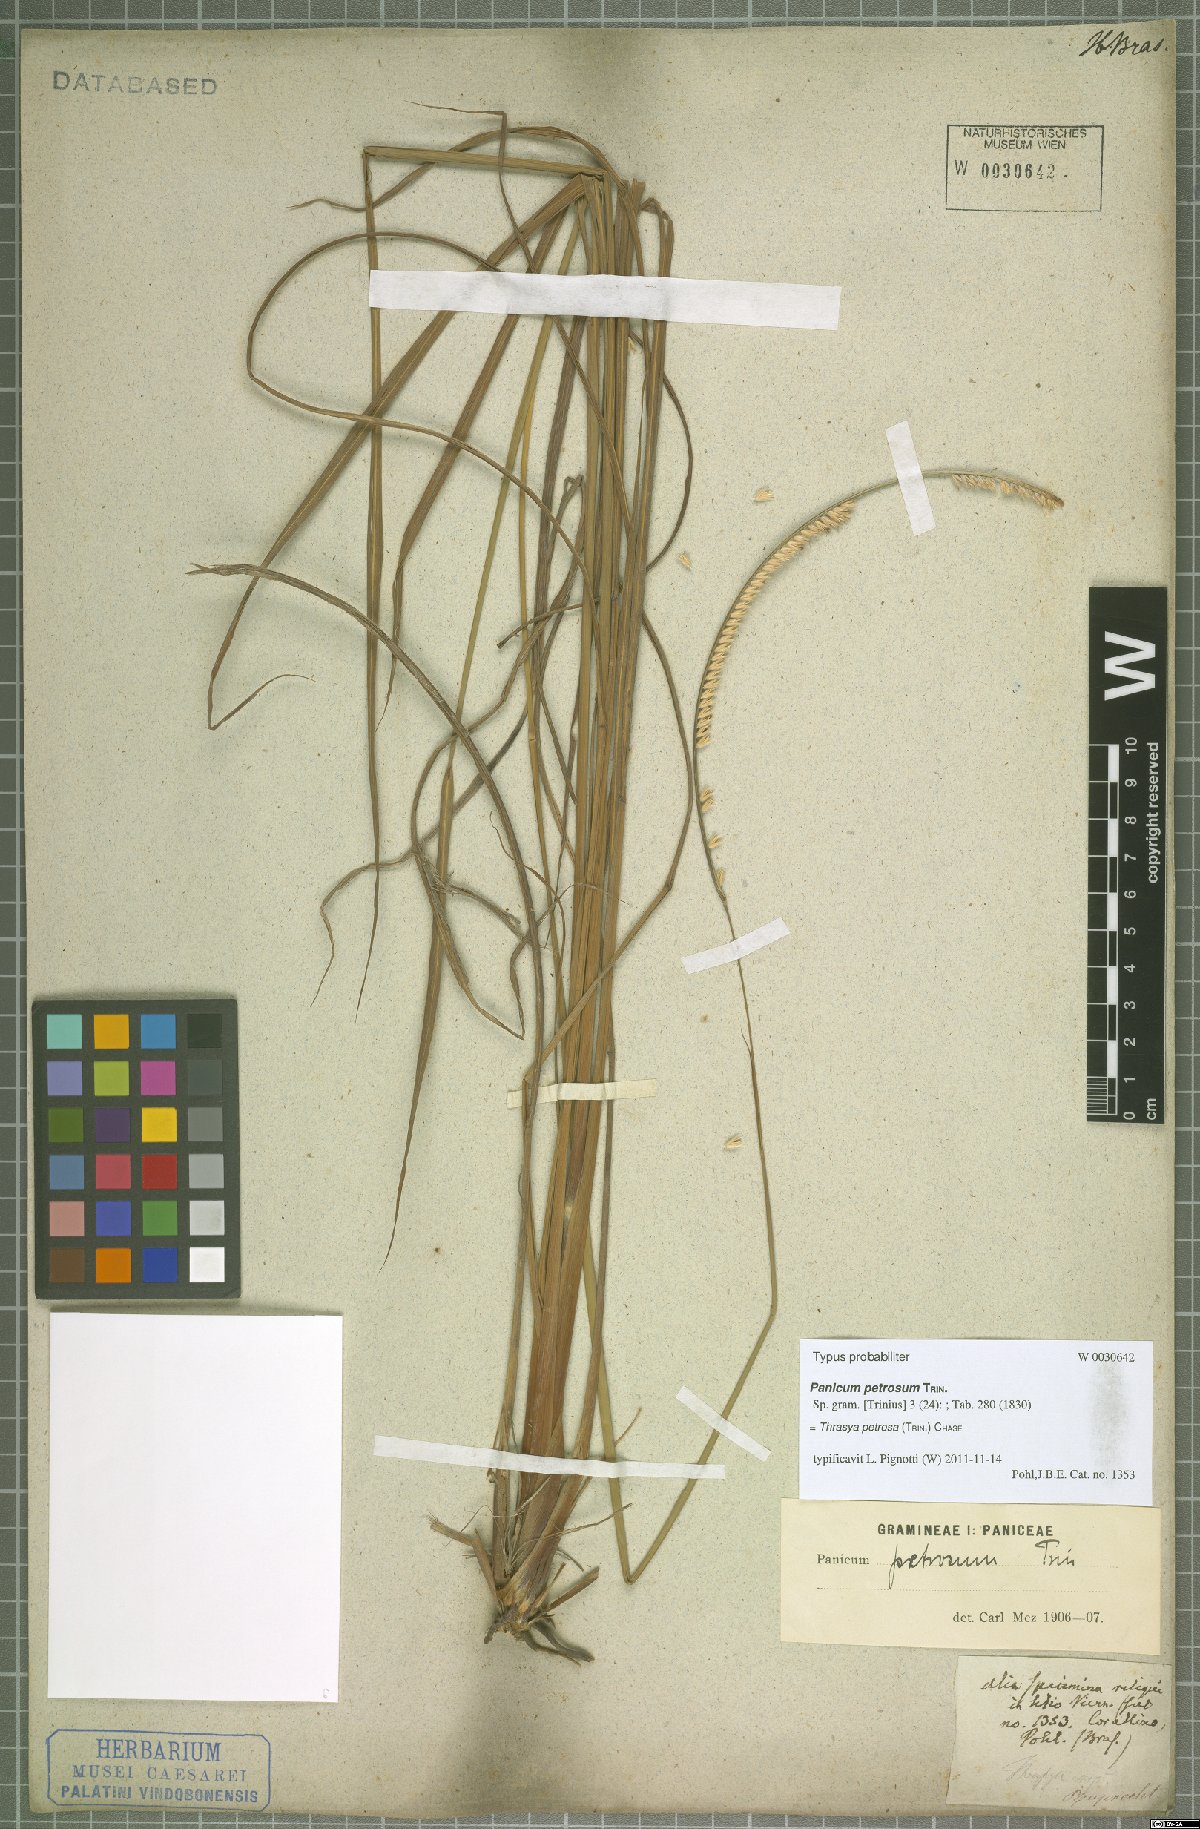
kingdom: Plantae
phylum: Tracheophyta
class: Liliopsida
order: Poales
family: Poaceae
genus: Paspalum
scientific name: Paspalum foliiforme
